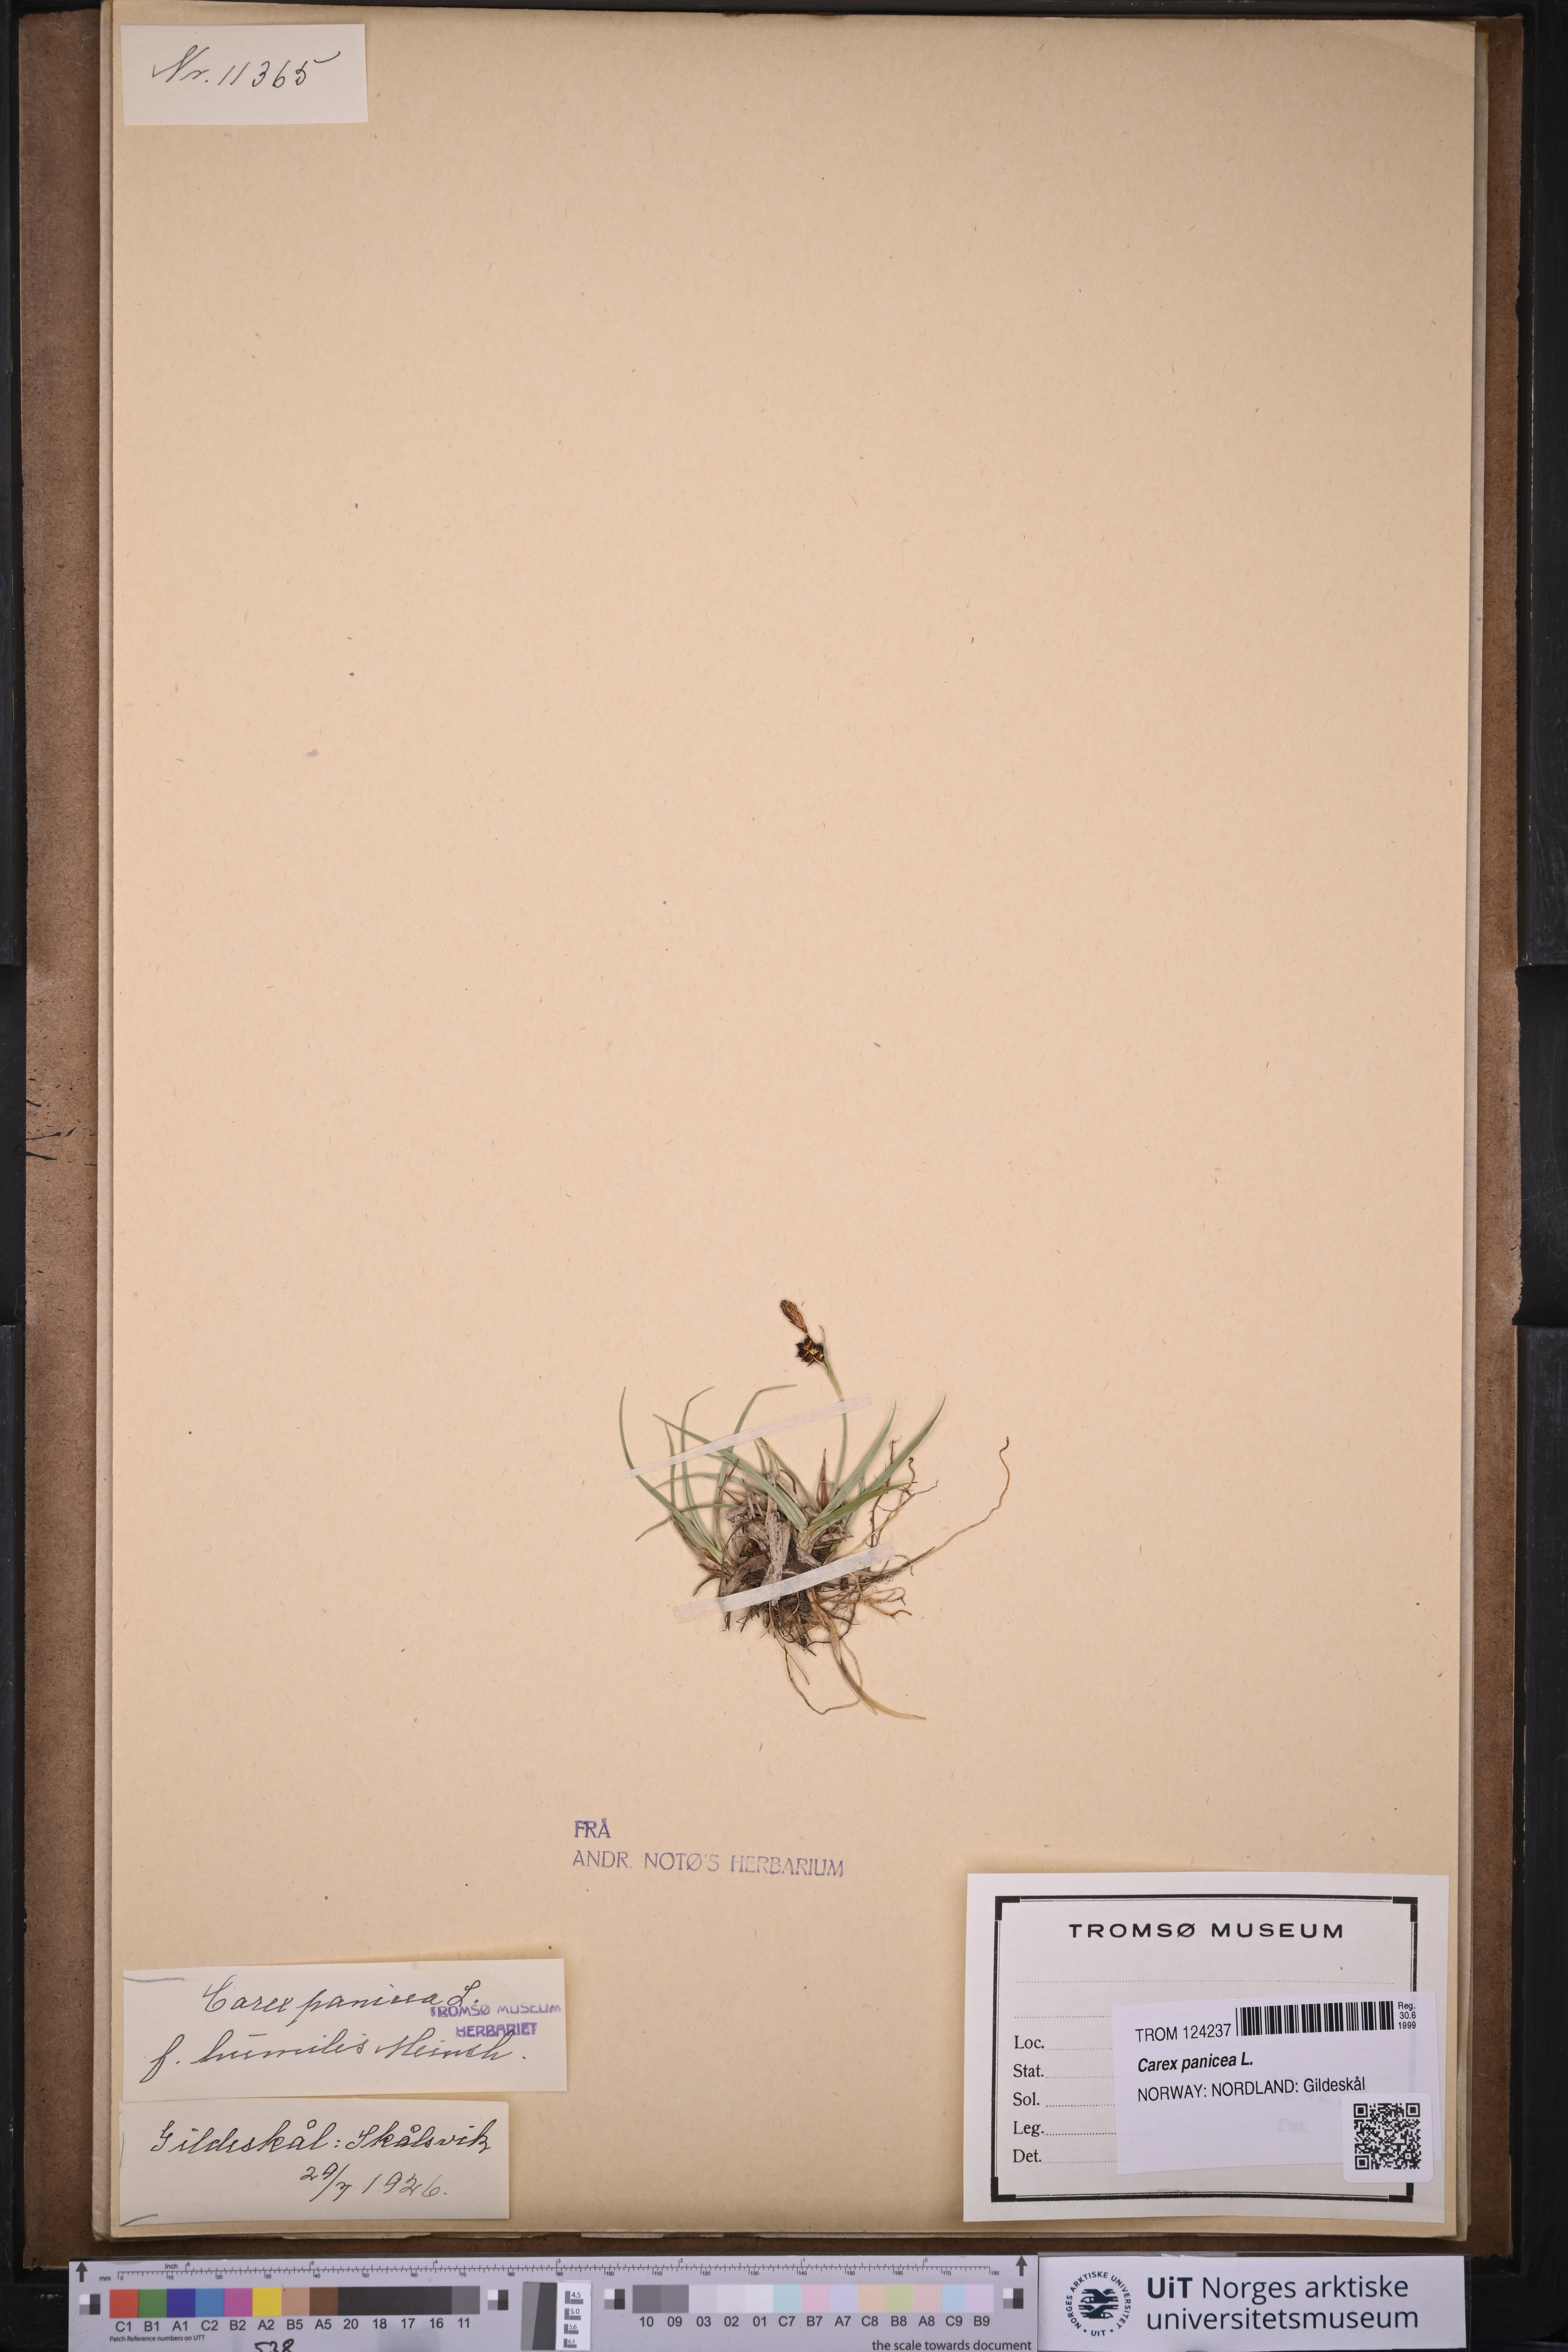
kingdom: Plantae
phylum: Tracheophyta
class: Liliopsida
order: Poales
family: Cyperaceae
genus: Carex
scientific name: Carex panicea
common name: Carnation sedge
